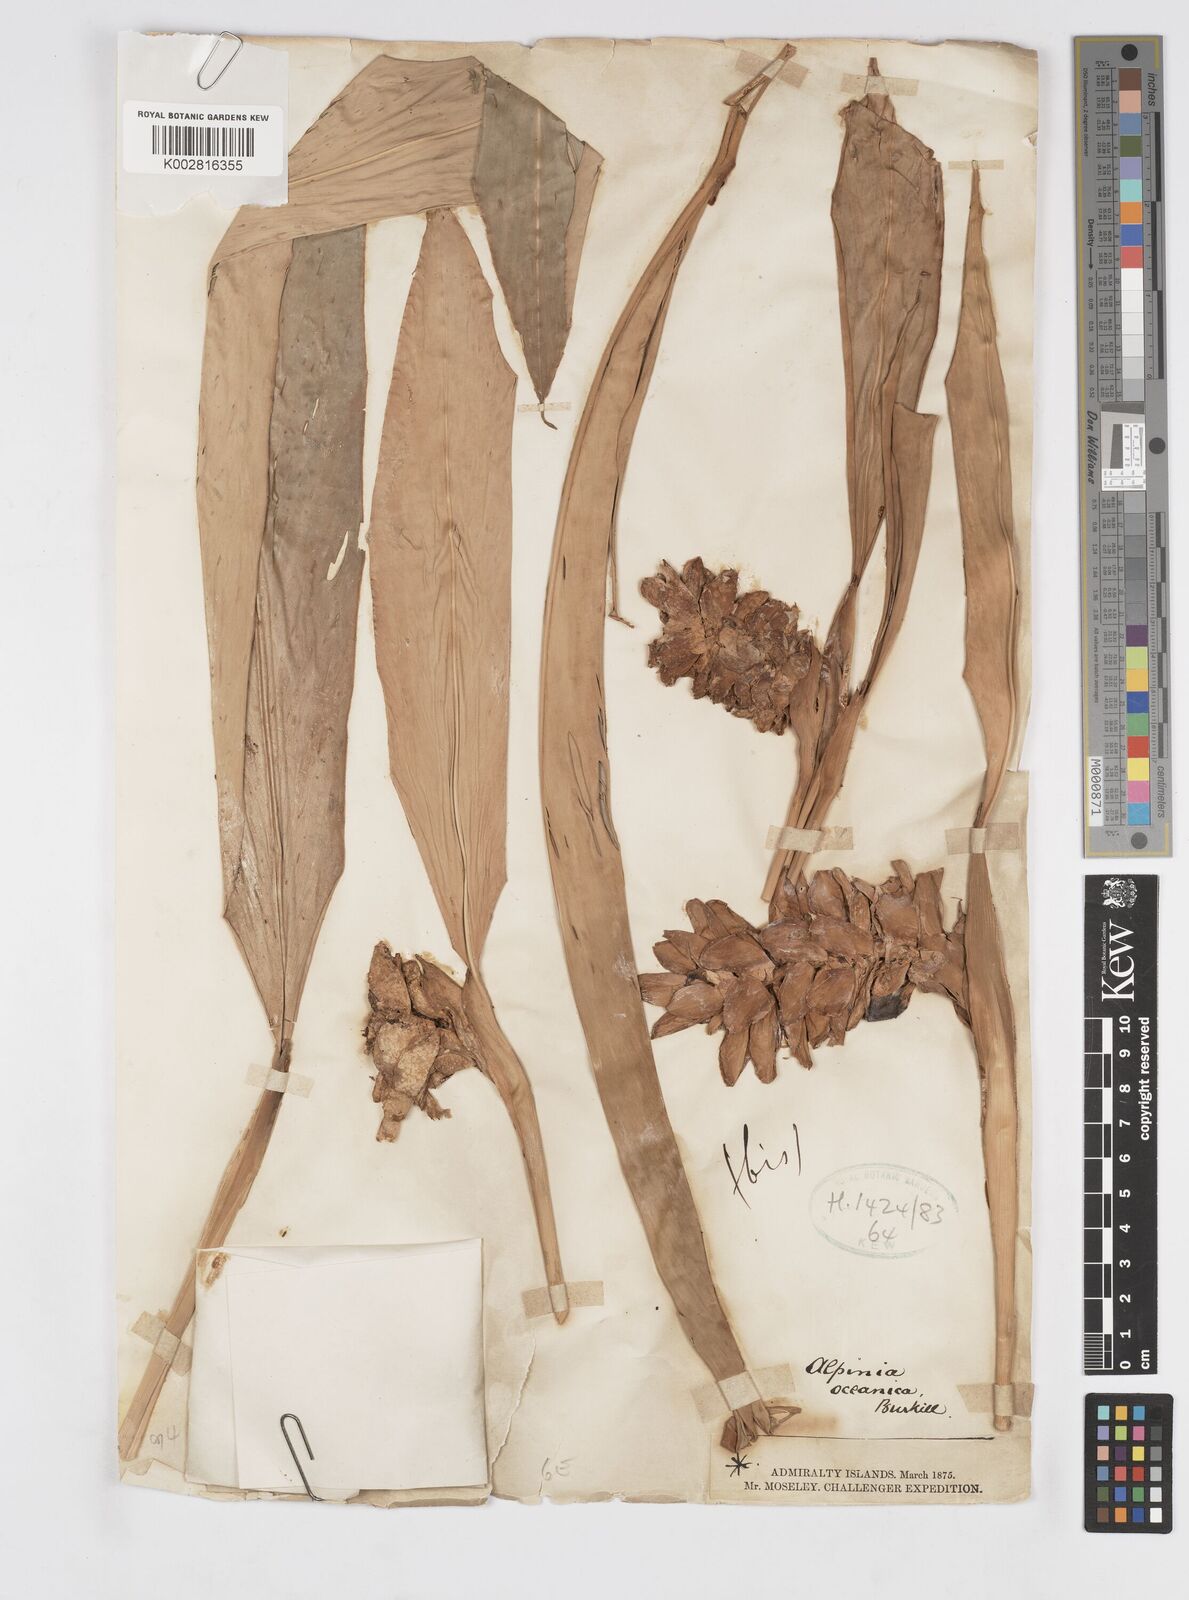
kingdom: Plantae
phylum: Tracheophyta
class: Liliopsida
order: Zingiberales
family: Zingiberaceae
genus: Alpinia
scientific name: Alpinia oceanica
